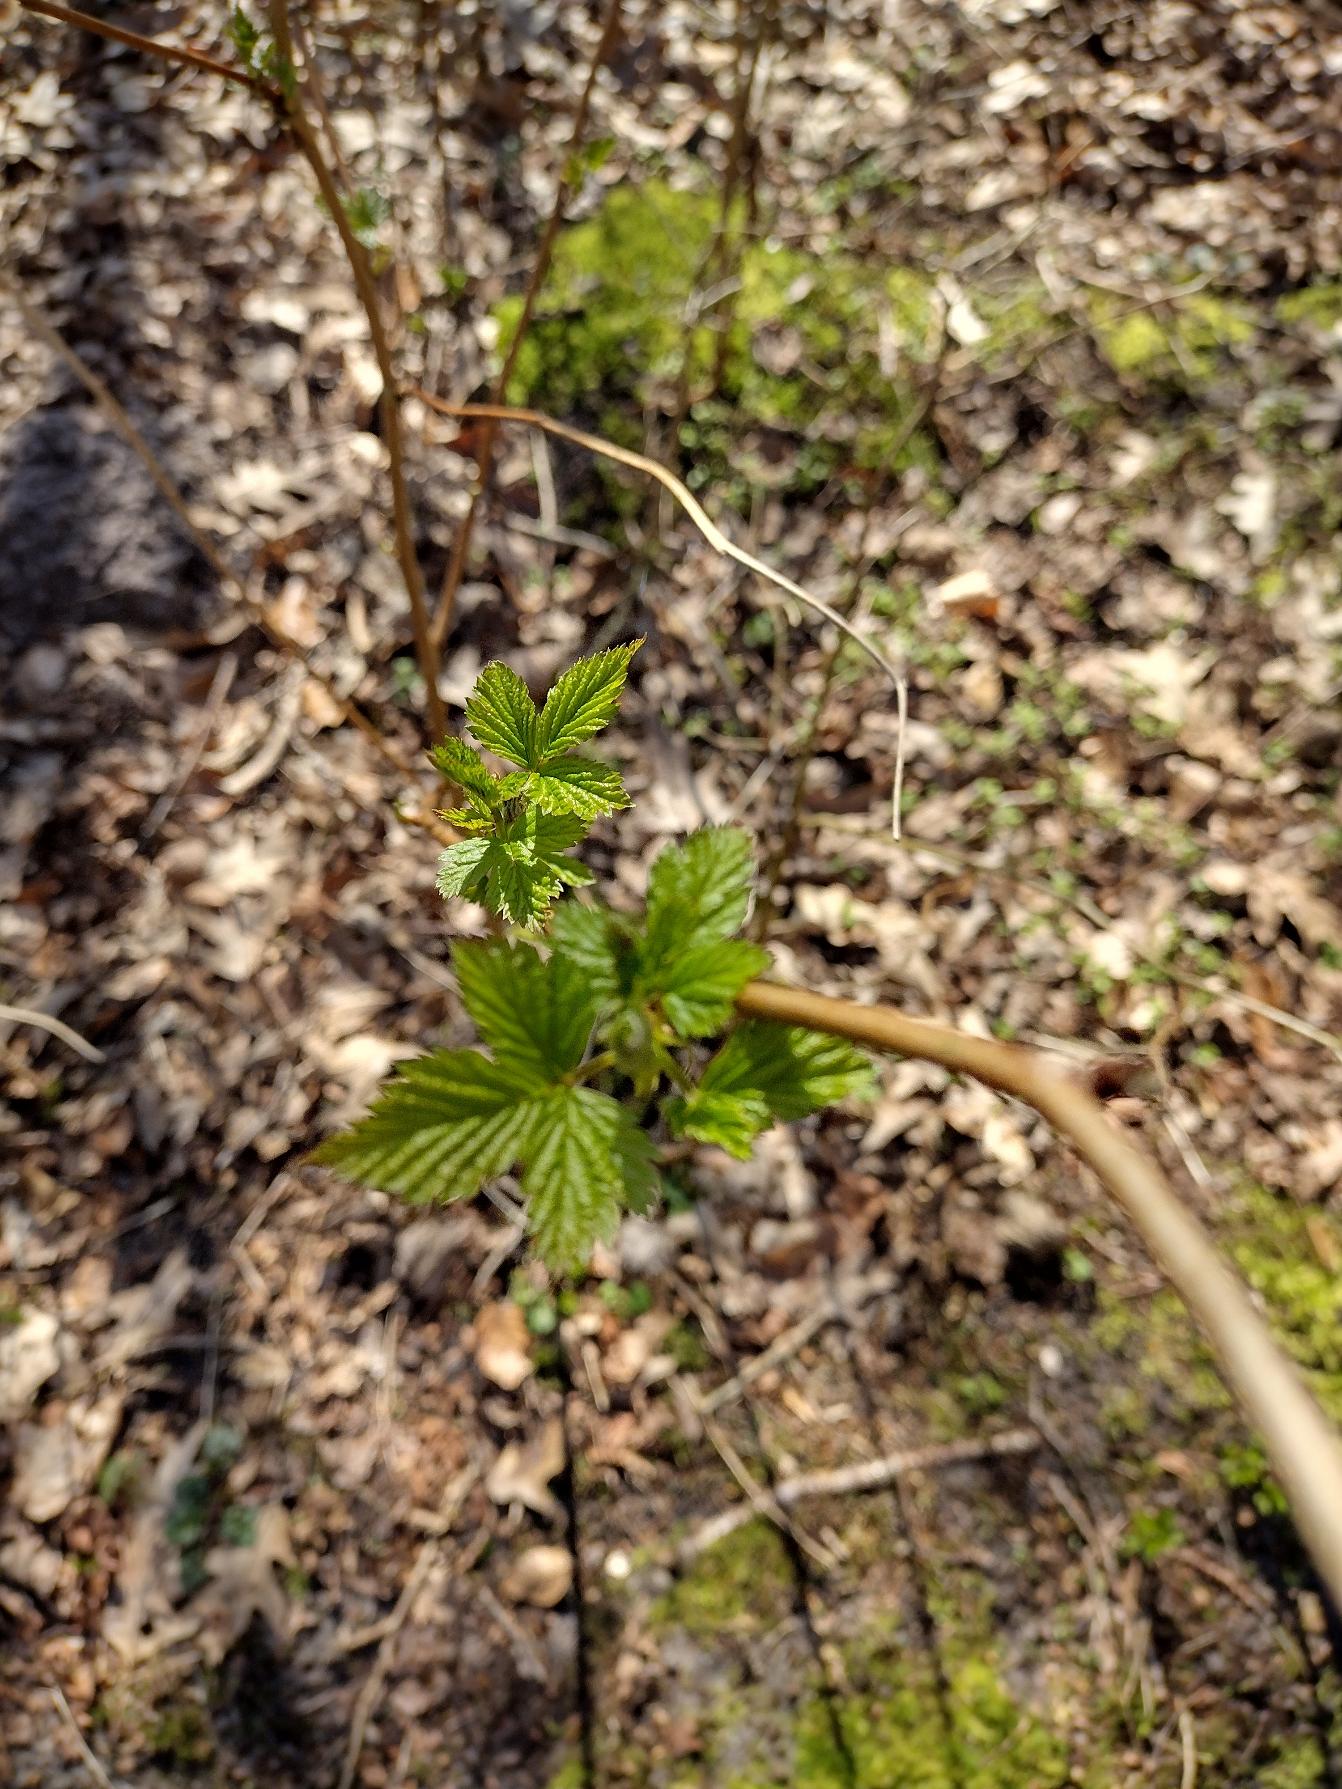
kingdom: Plantae
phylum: Tracheophyta
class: Magnoliopsida
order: Rosales
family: Rosaceae
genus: Rubus
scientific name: Rubus spectabilis
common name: Laksebær
